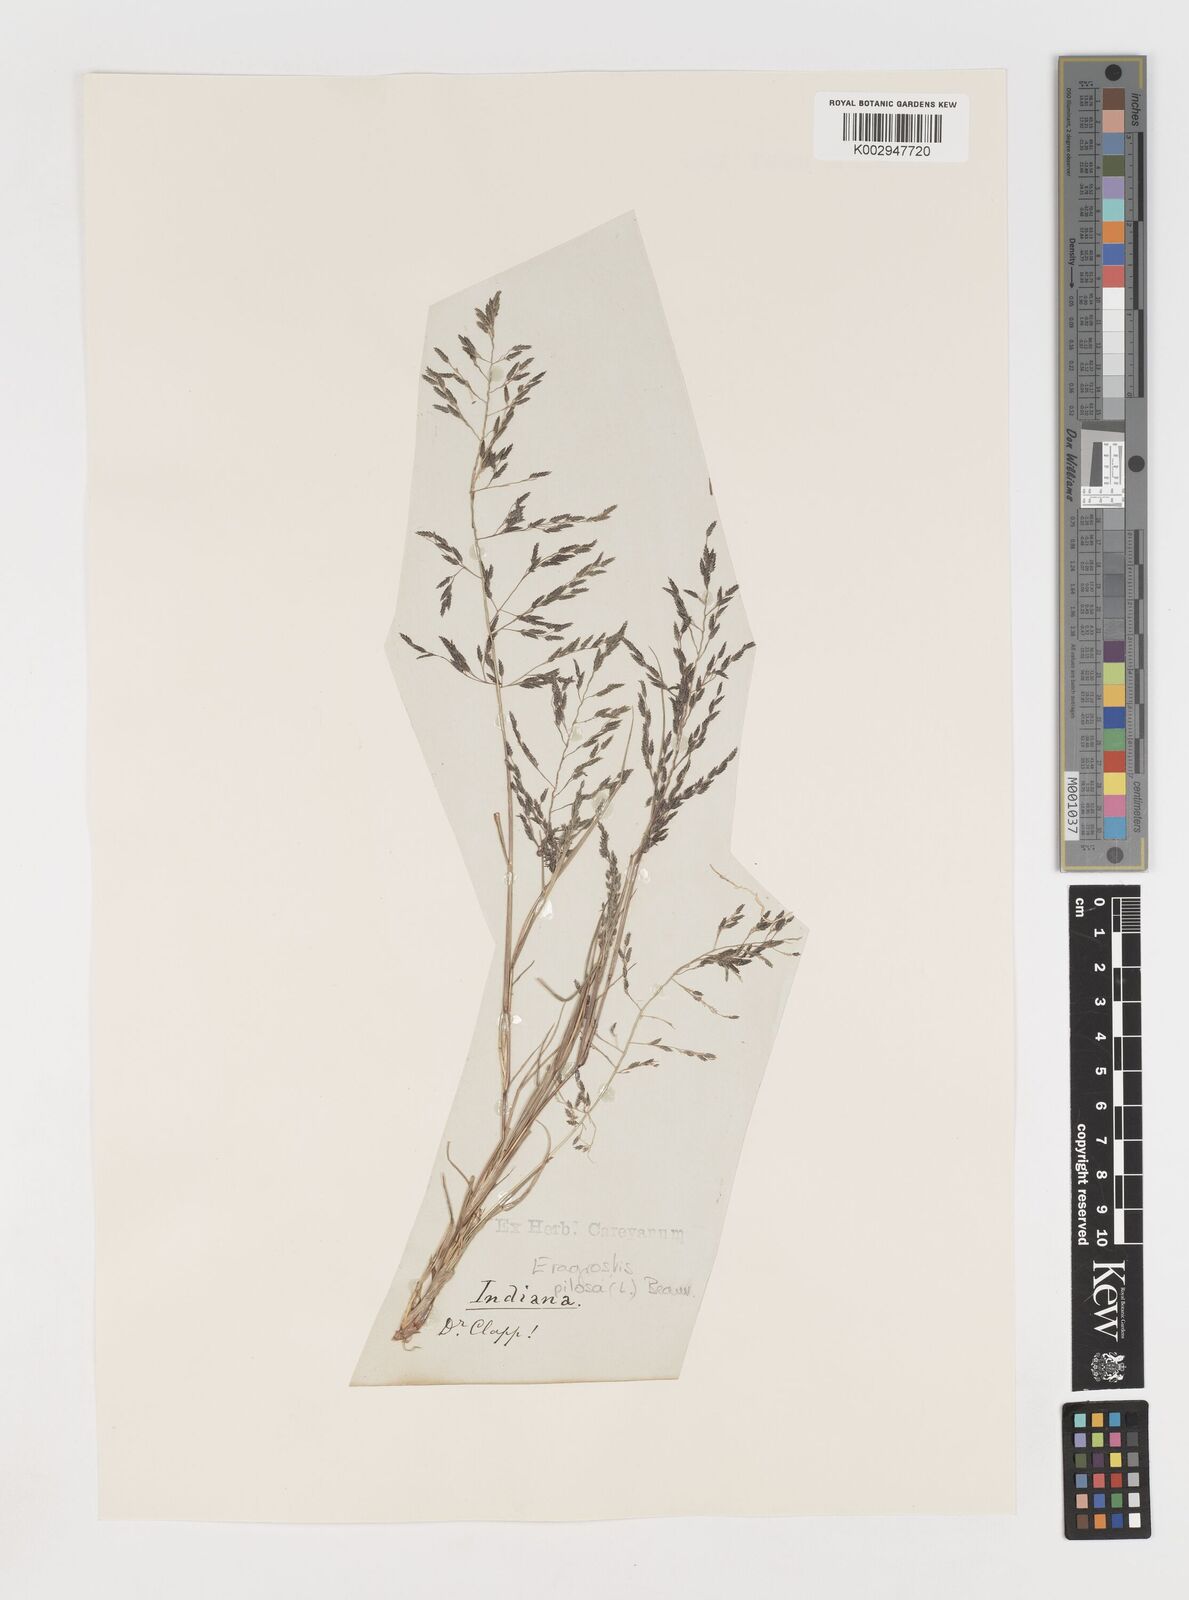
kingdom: Plantae
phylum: Tracheophyta
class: Liliopsida
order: Poales
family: Poaceae
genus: Eragrostis
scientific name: Eragrostis pilosa
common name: Indian lovegrass
